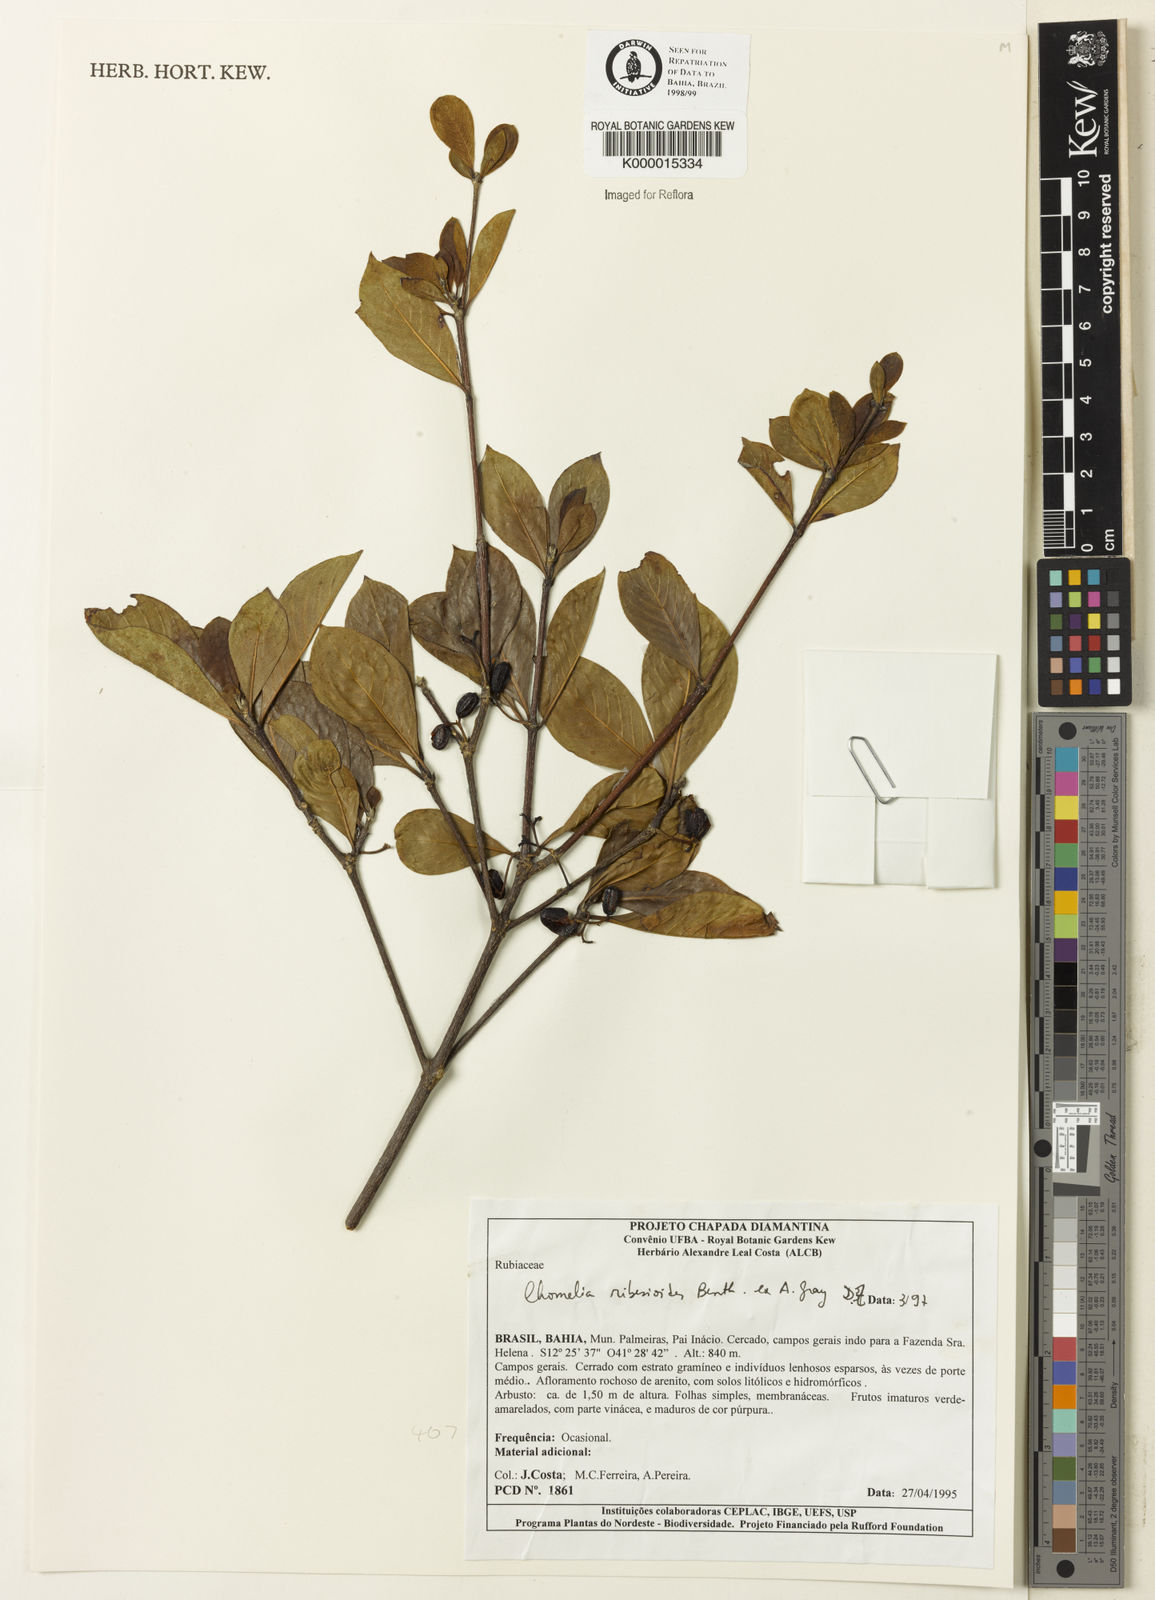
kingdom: Plantae
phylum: Tracheophyta
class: Magnoliopsida
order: Gentianales
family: Rubiaceae
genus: Chomelia
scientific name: Chomelia ribesioides
